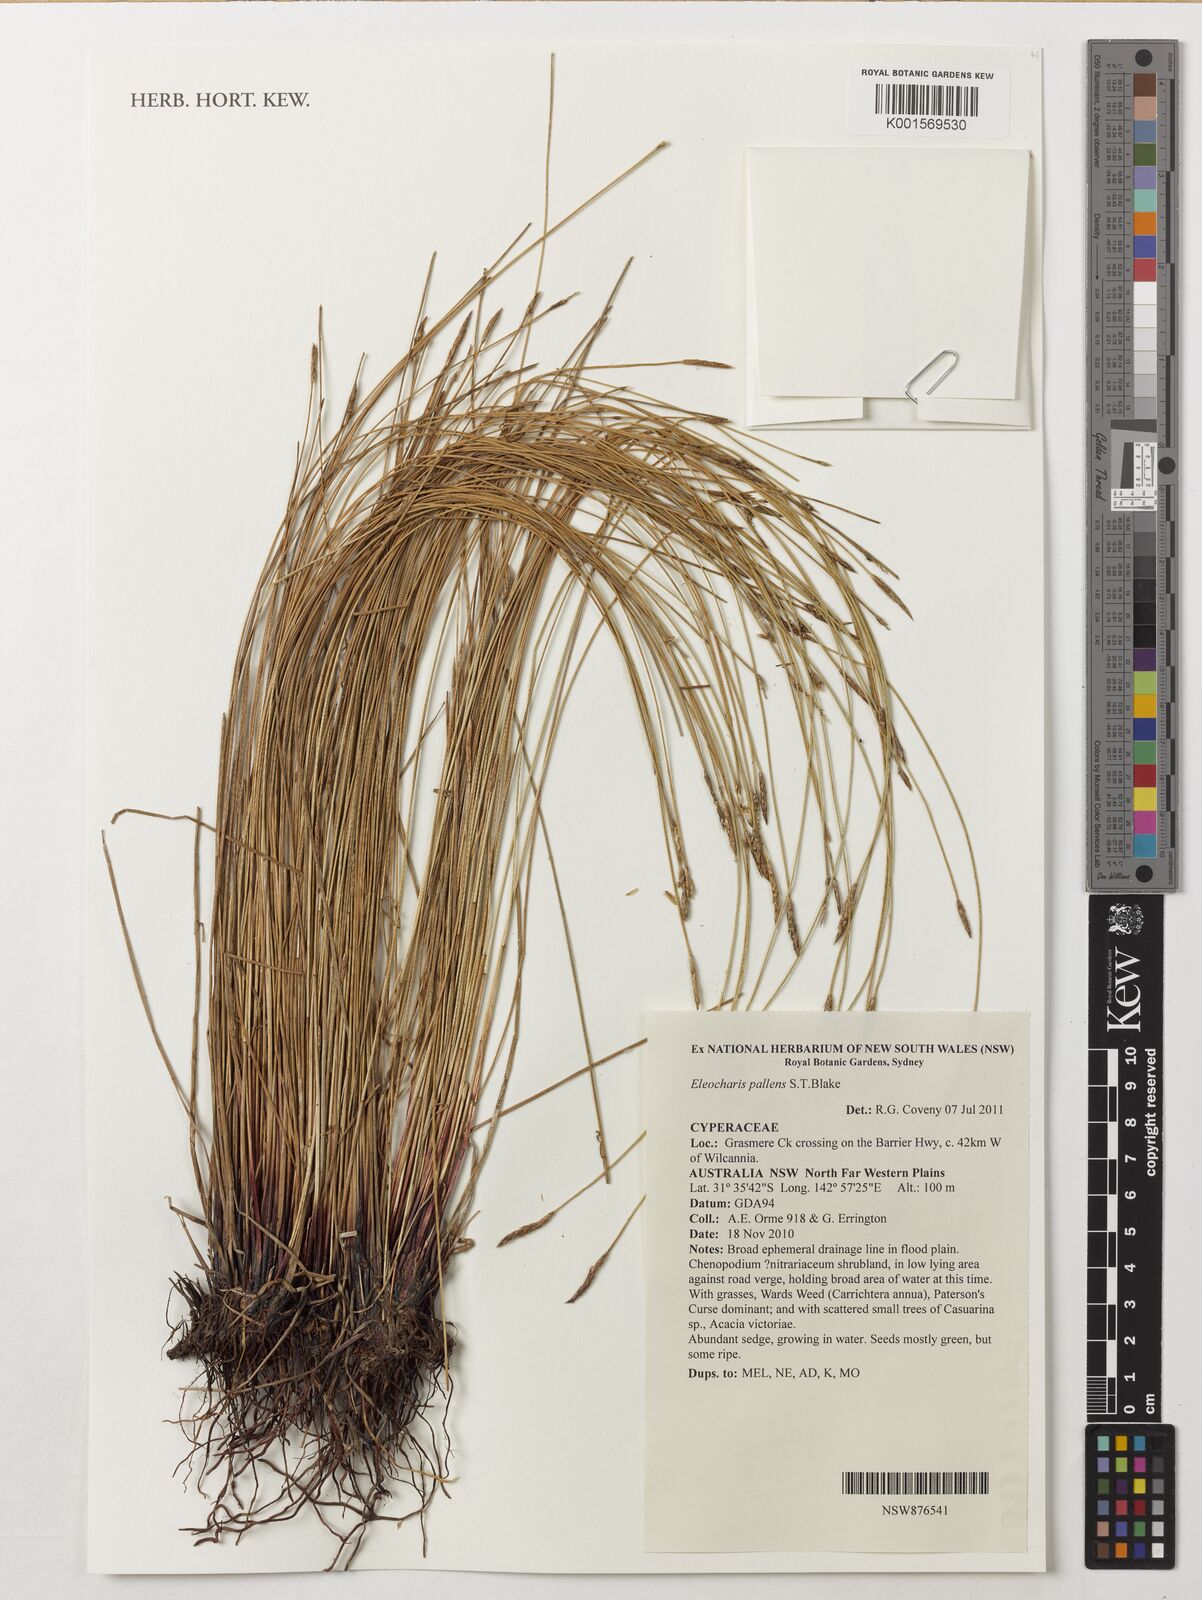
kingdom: Plantae
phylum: Tracheophyta
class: Liliopsida
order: Poales
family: Cyperaceae
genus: Eleocharis
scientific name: Eleocharis pallens
